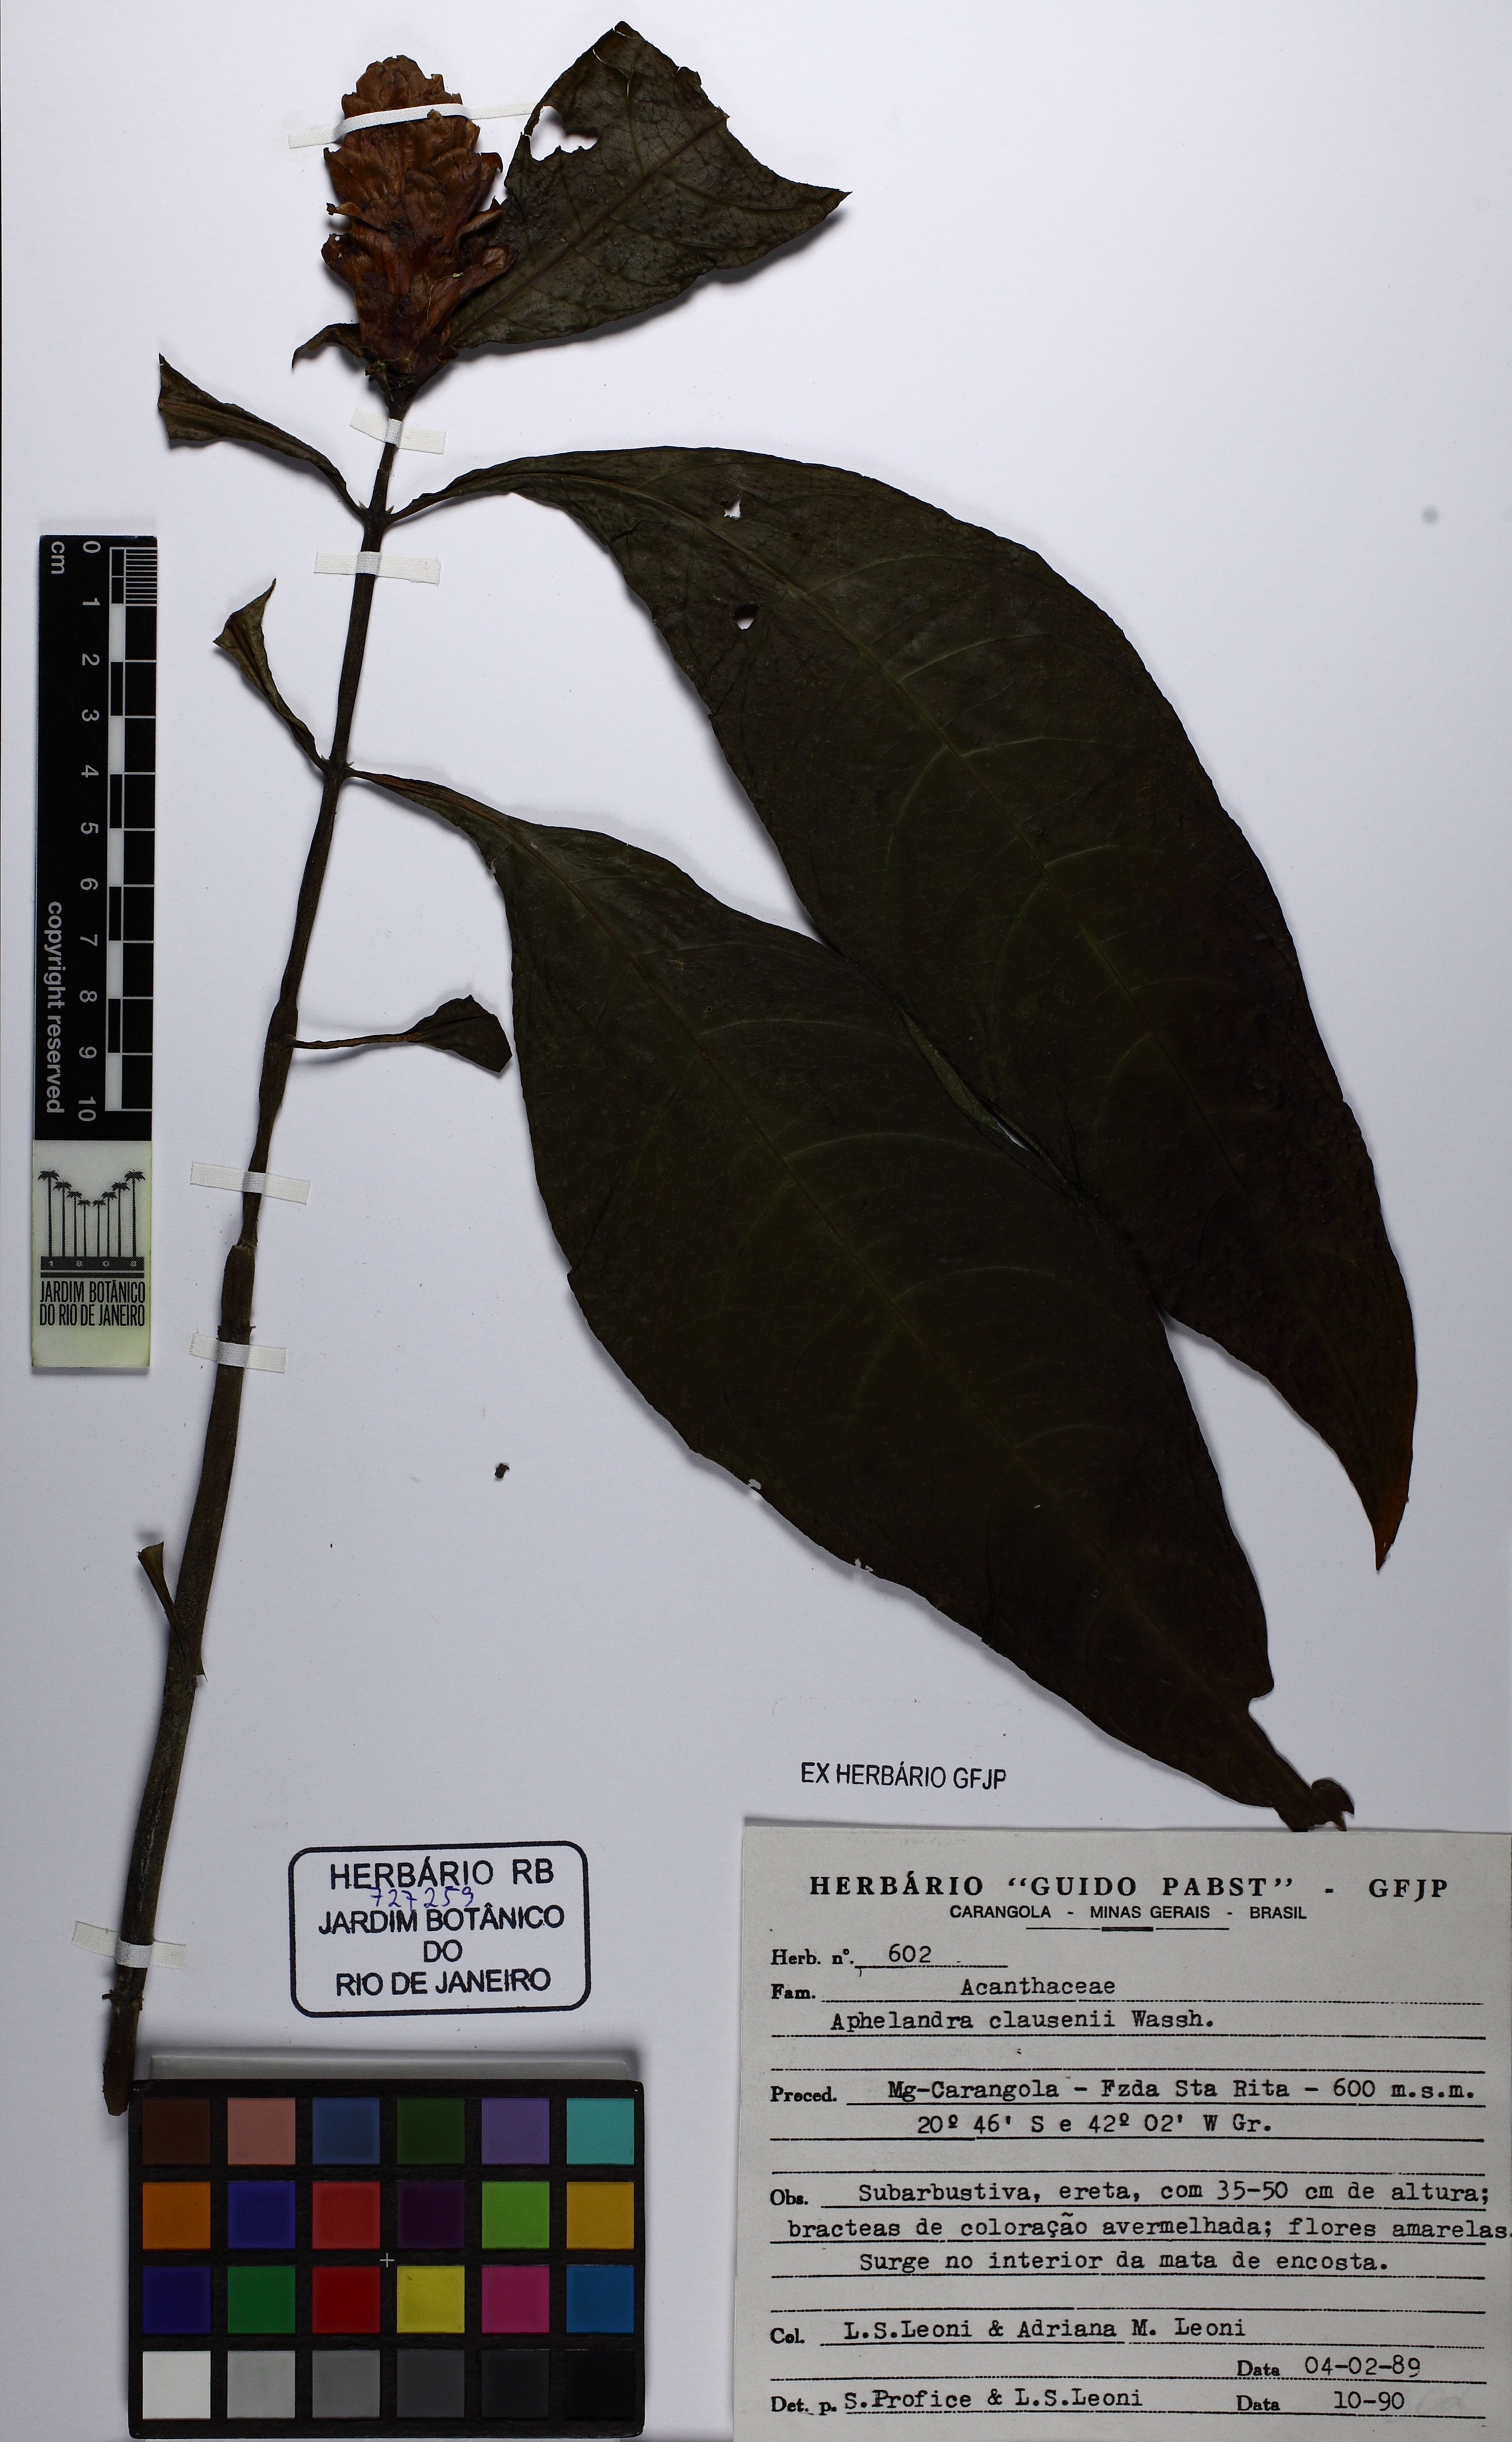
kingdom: Plantae
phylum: Tracheophyta
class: Magnoliopsida
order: Lamiales
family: Acanthaceae
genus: Aphelandra
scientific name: Aphelandra claussenii
